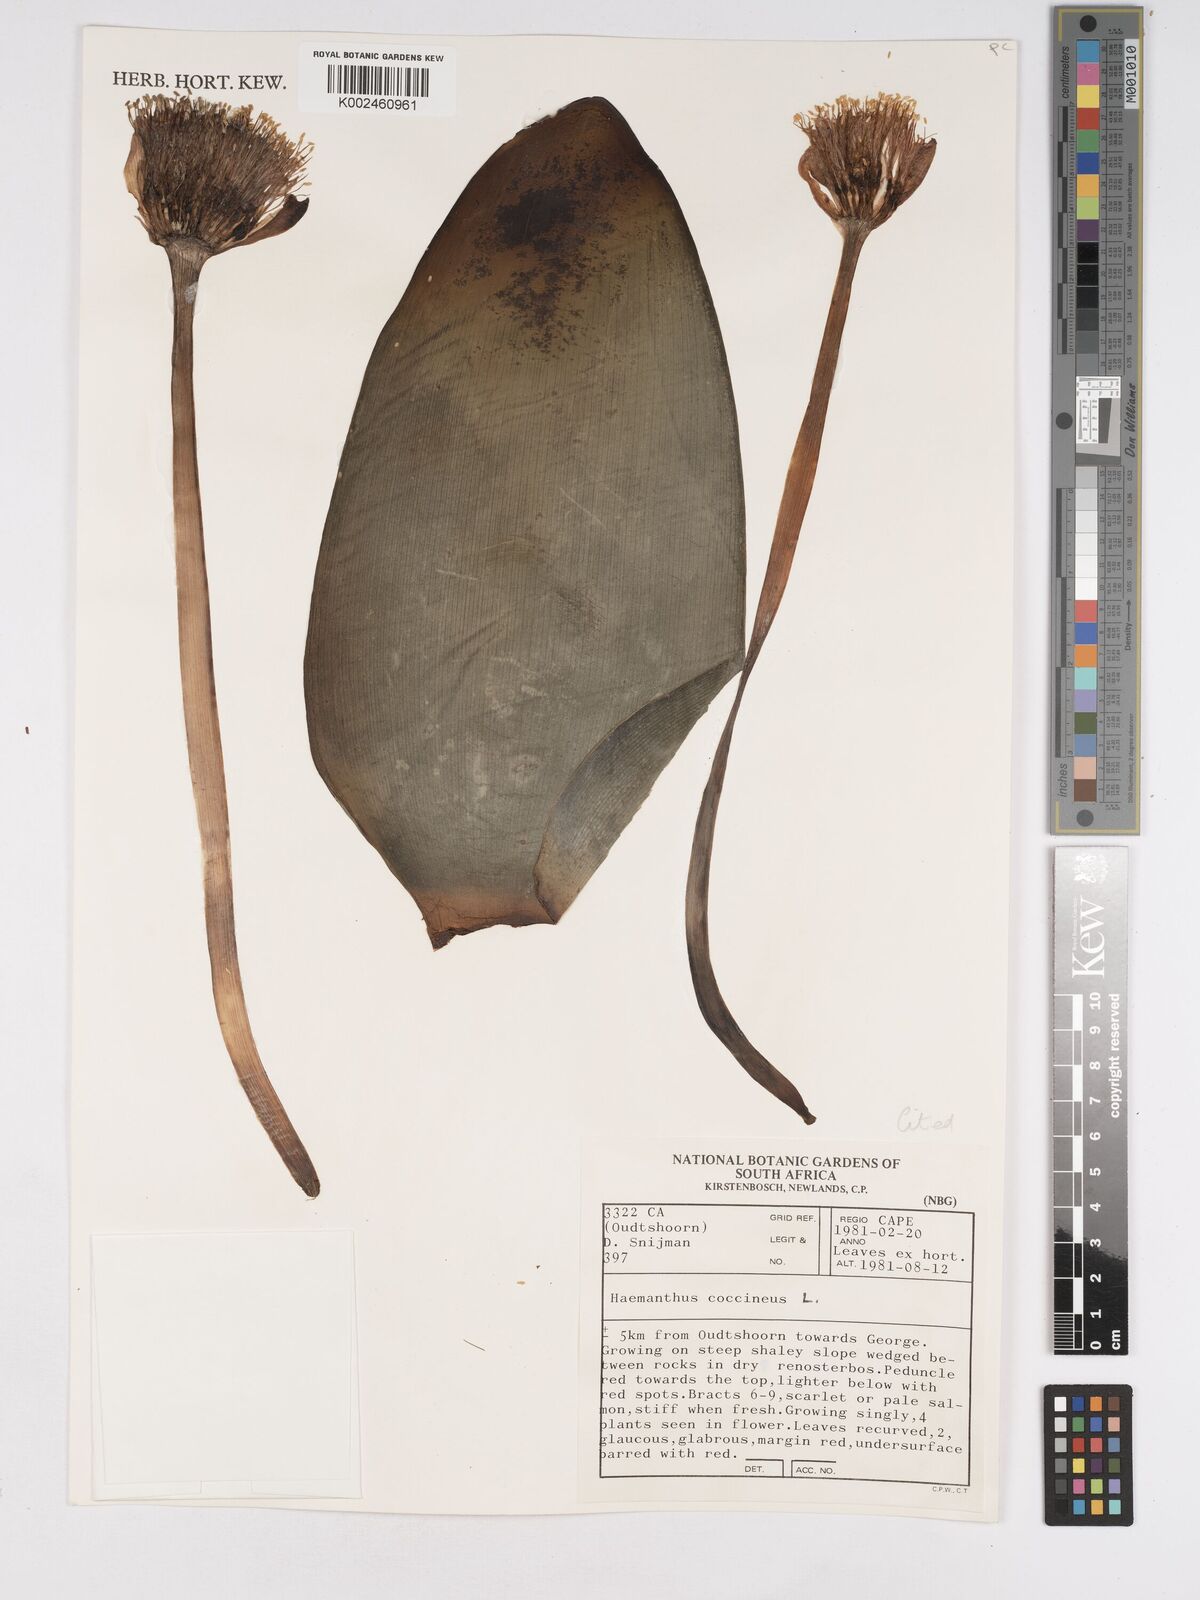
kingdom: Plantae
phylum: Tracheophyta
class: Liliopsida
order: Asparagales
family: Amaryllidaceae
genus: Haemanthus
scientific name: Haemanthus coccineus
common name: Cape-tulip
